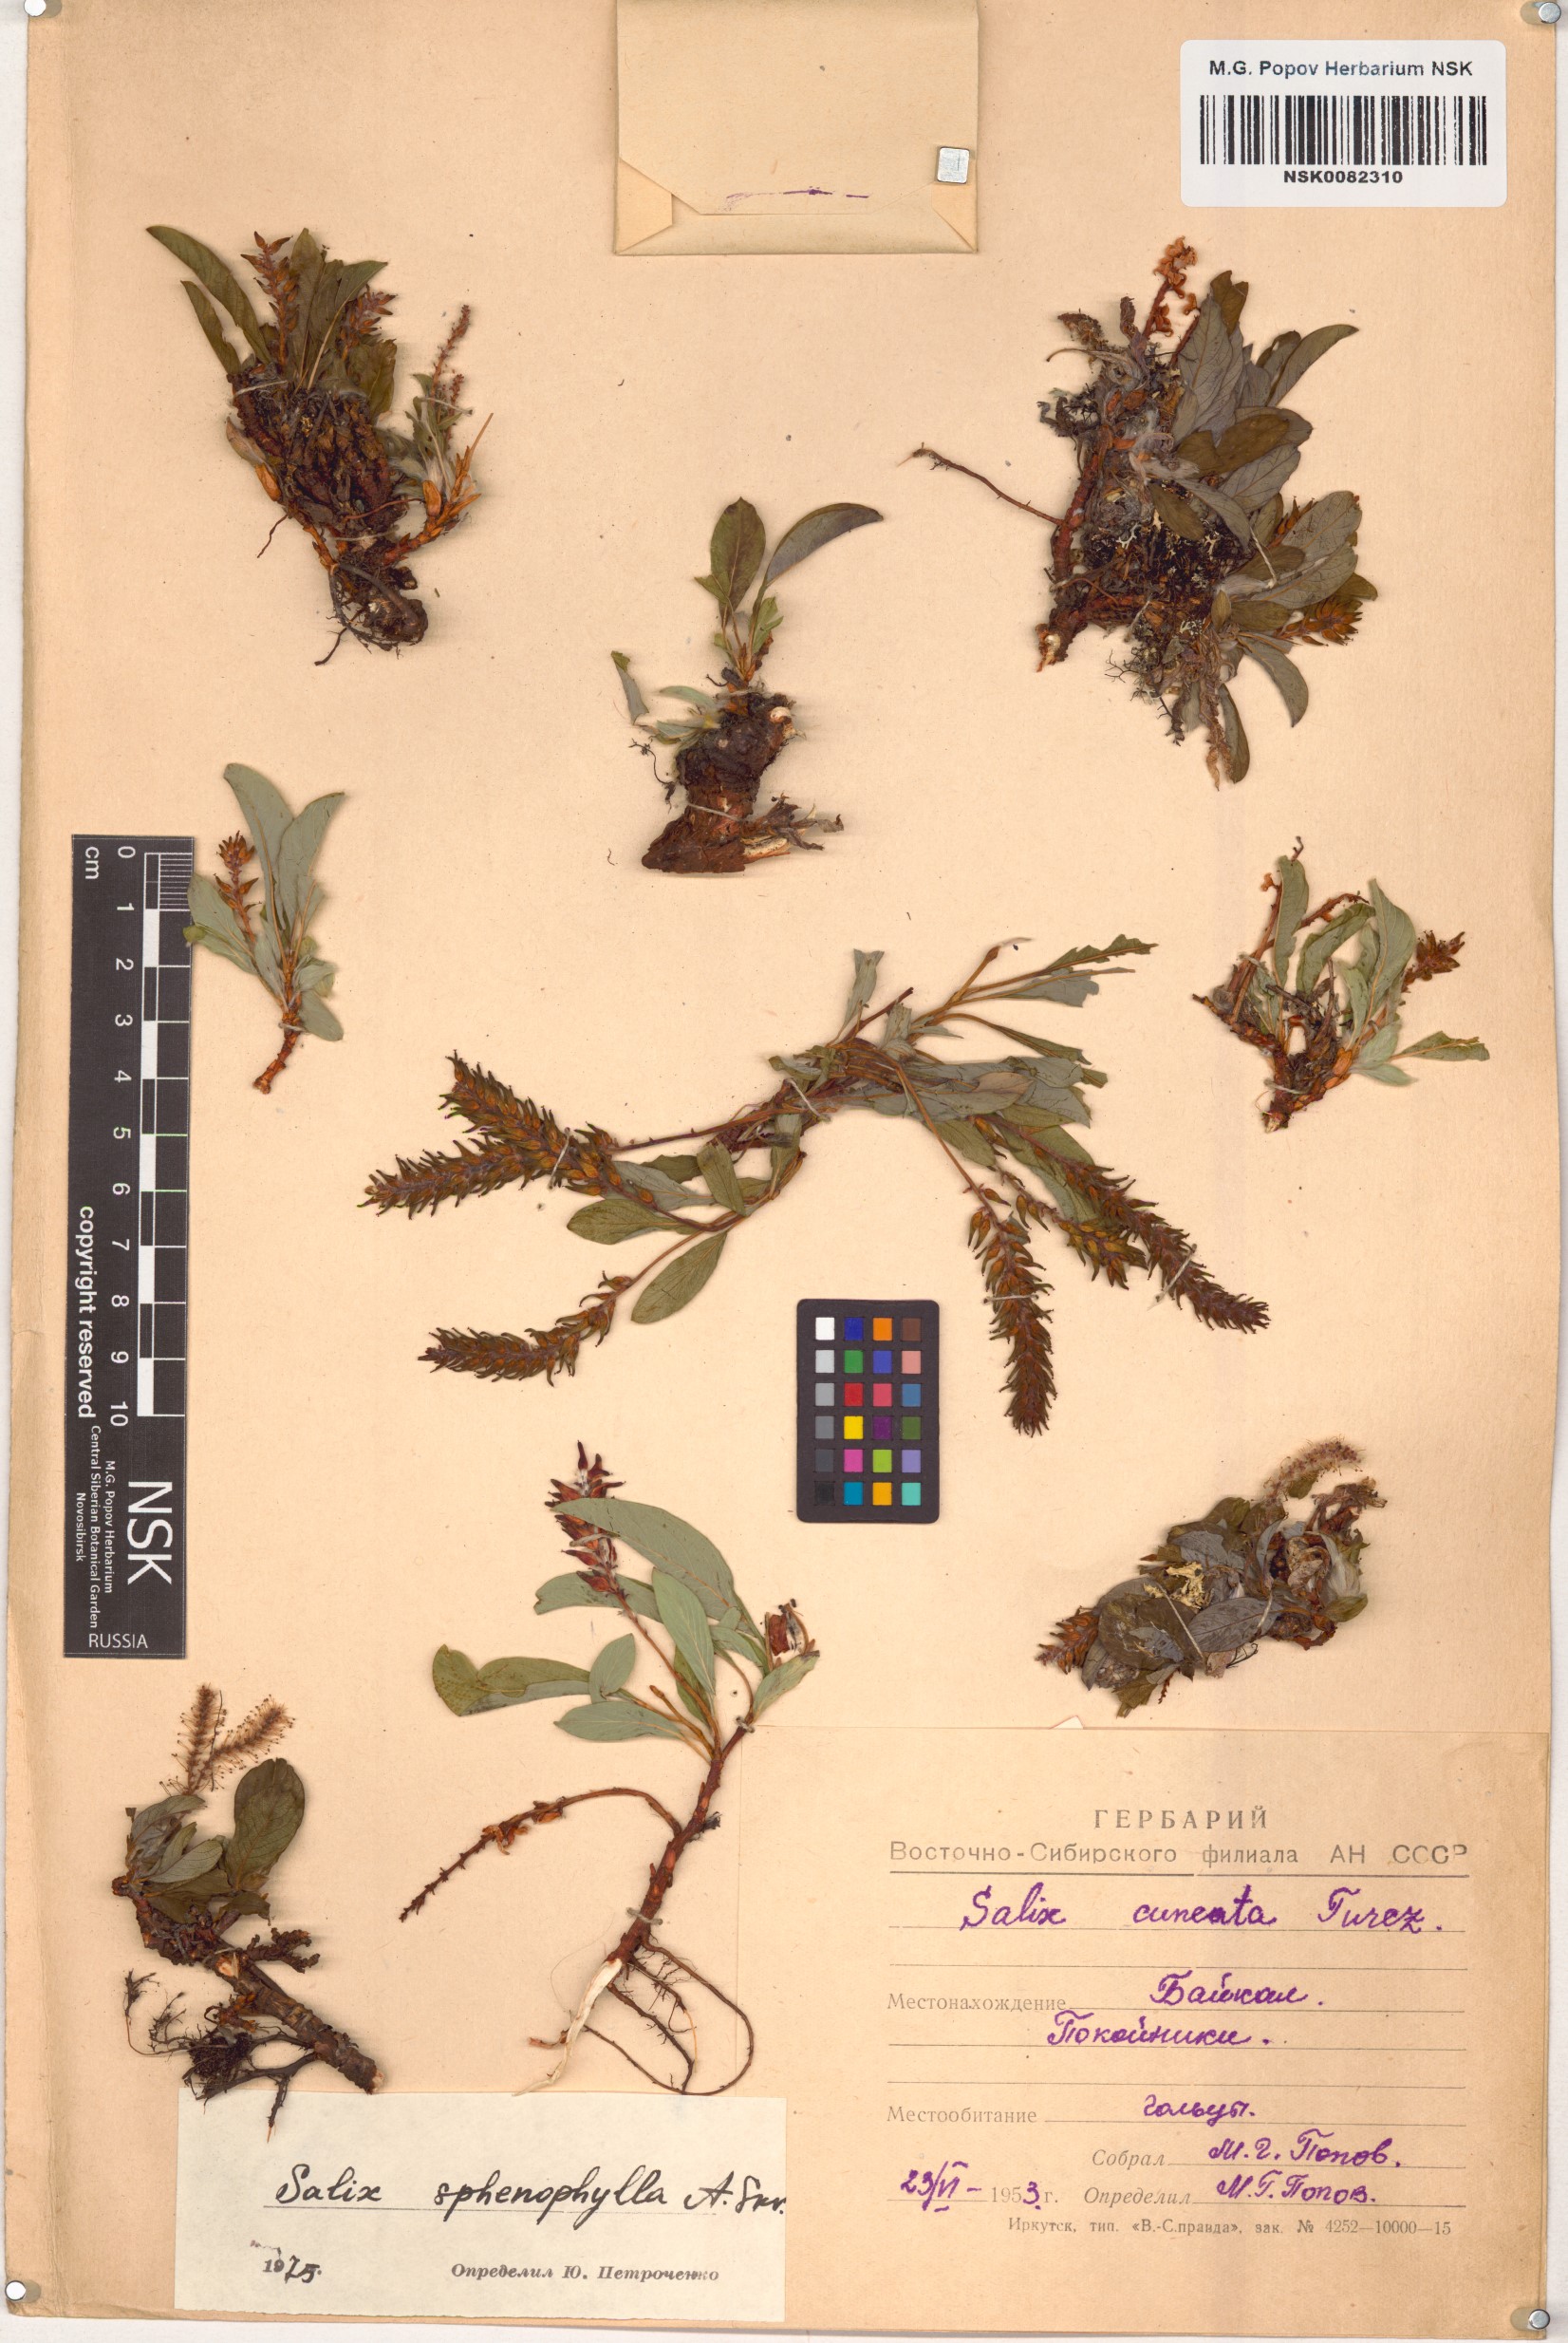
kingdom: Plantae
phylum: Tracheophyta
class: Magnoliopsida
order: Malpighiales
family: Salicaceae
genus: Salix
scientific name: Salix sphenophylla
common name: Wedge-leaved willow
